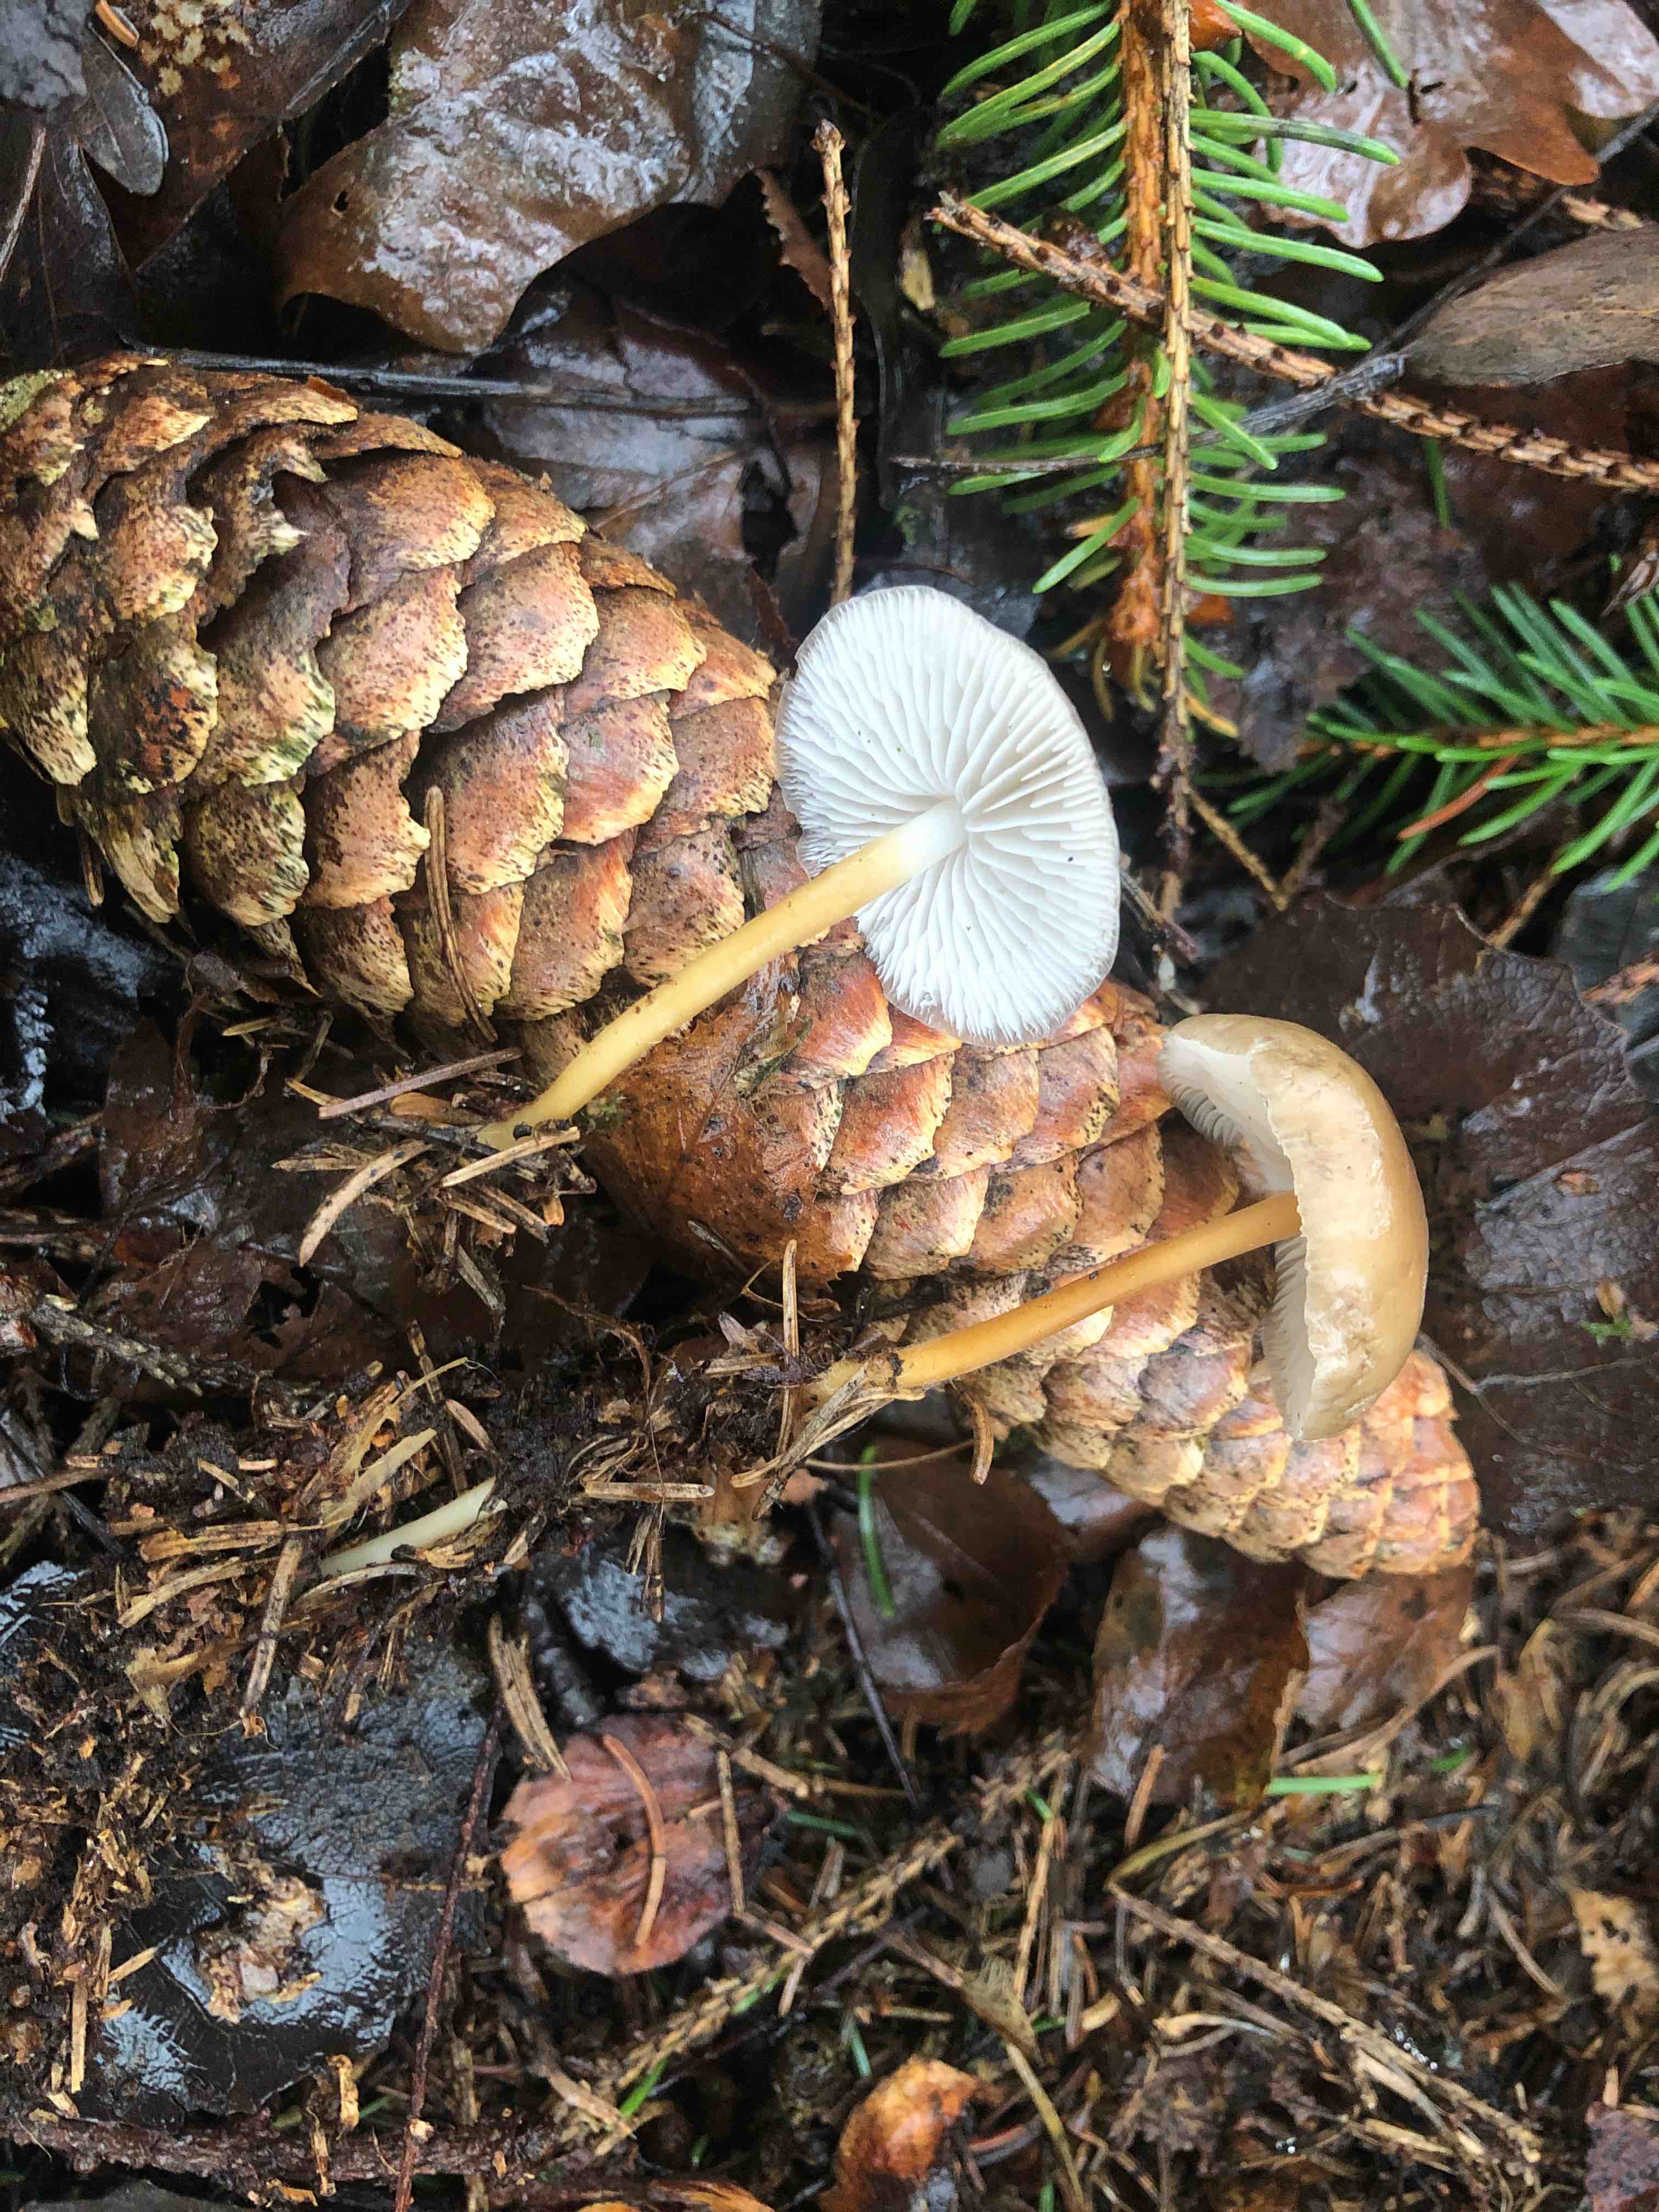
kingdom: Fungi
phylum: Basidiomycota
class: Agaricomycetes
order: Agaricales
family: Physalacriaceae
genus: Strobilurus
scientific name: Strobilurus esculentus
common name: gran-koglehat
